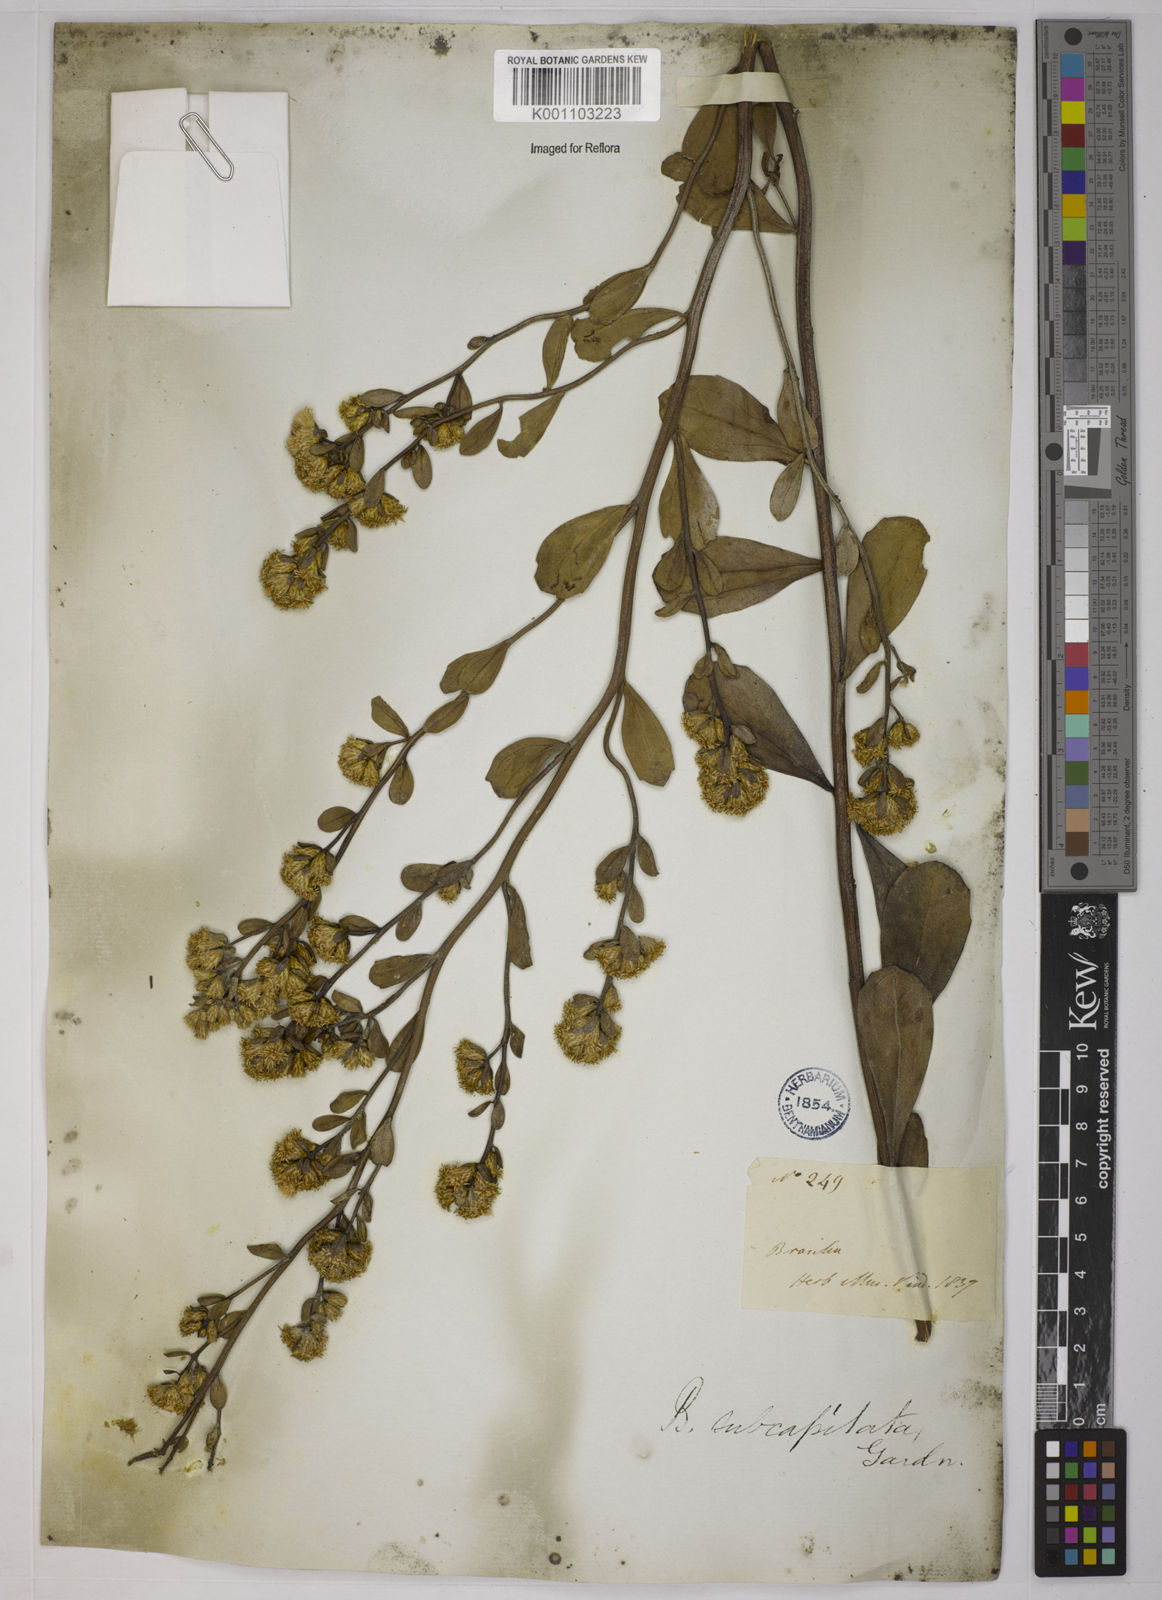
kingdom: Plantae
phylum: Tracheophyta
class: Magnoliopsida
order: Asterales
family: Asteraceae
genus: Baccharis
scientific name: Baccharis subdentata
